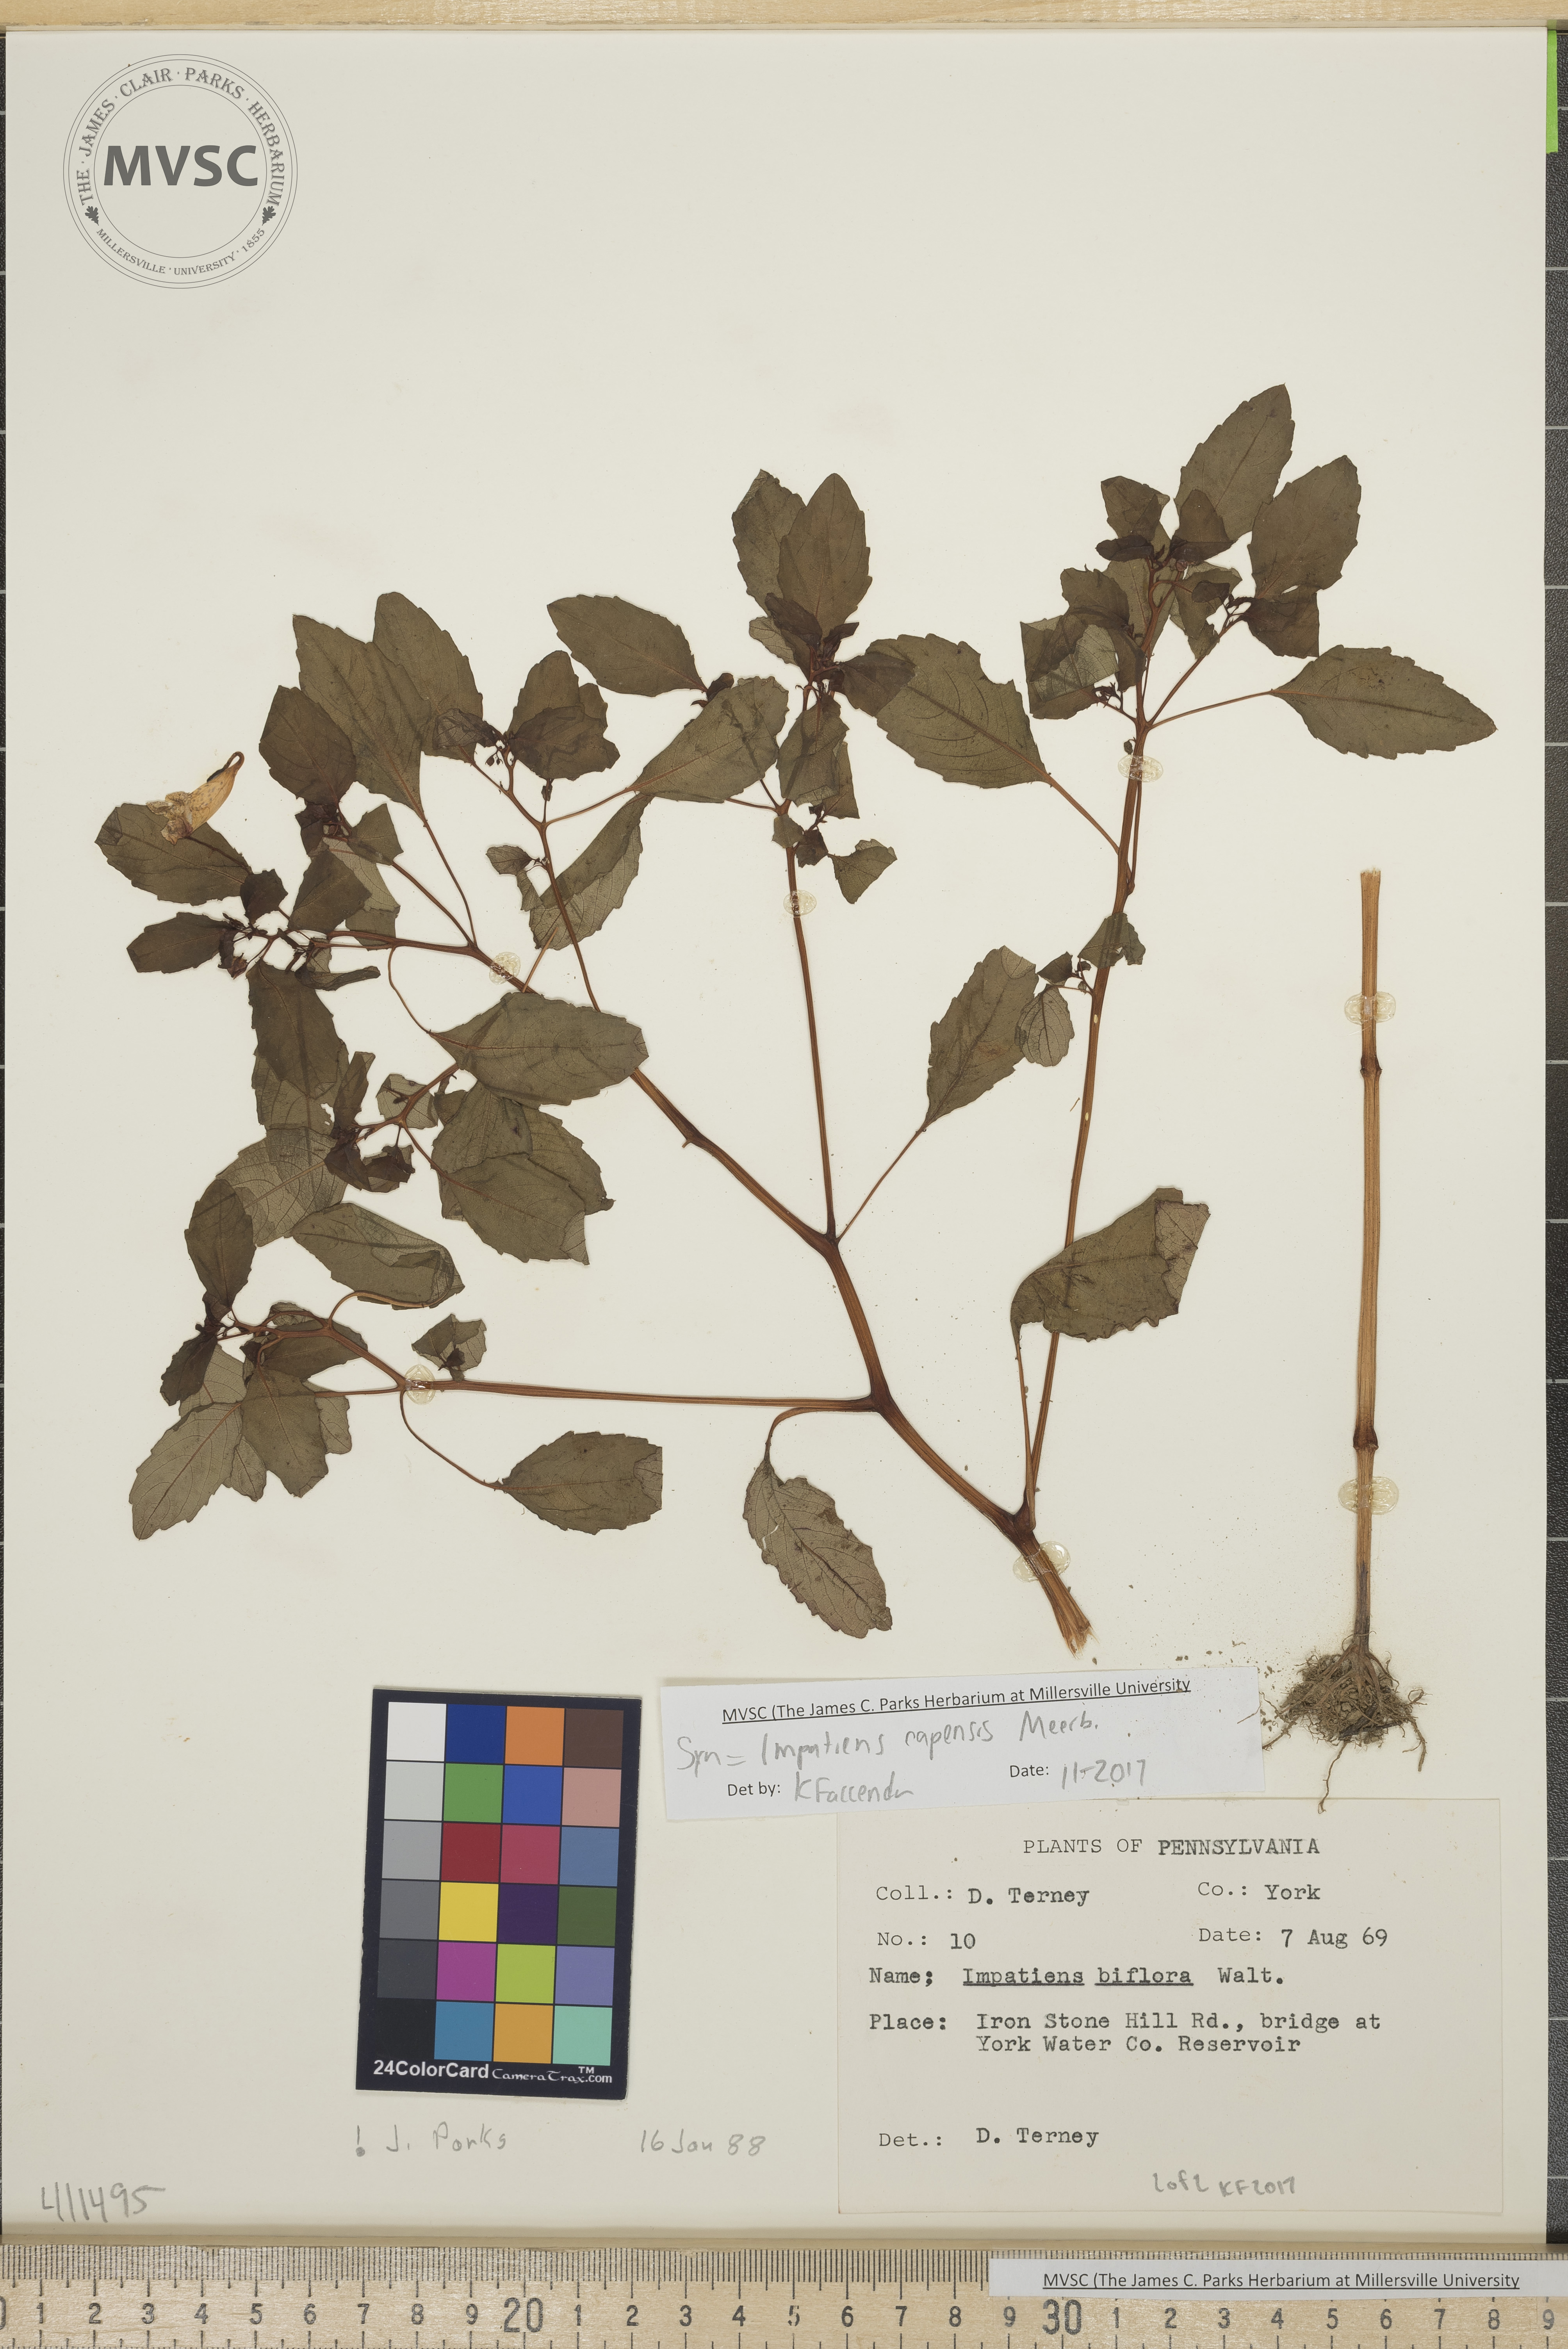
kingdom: Plantae
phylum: Tracheophyta
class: Magnoliopsida
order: Ericales
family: Balsaminaceae
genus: Impatiens
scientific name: Impatiens capensis
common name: Jewelweed
